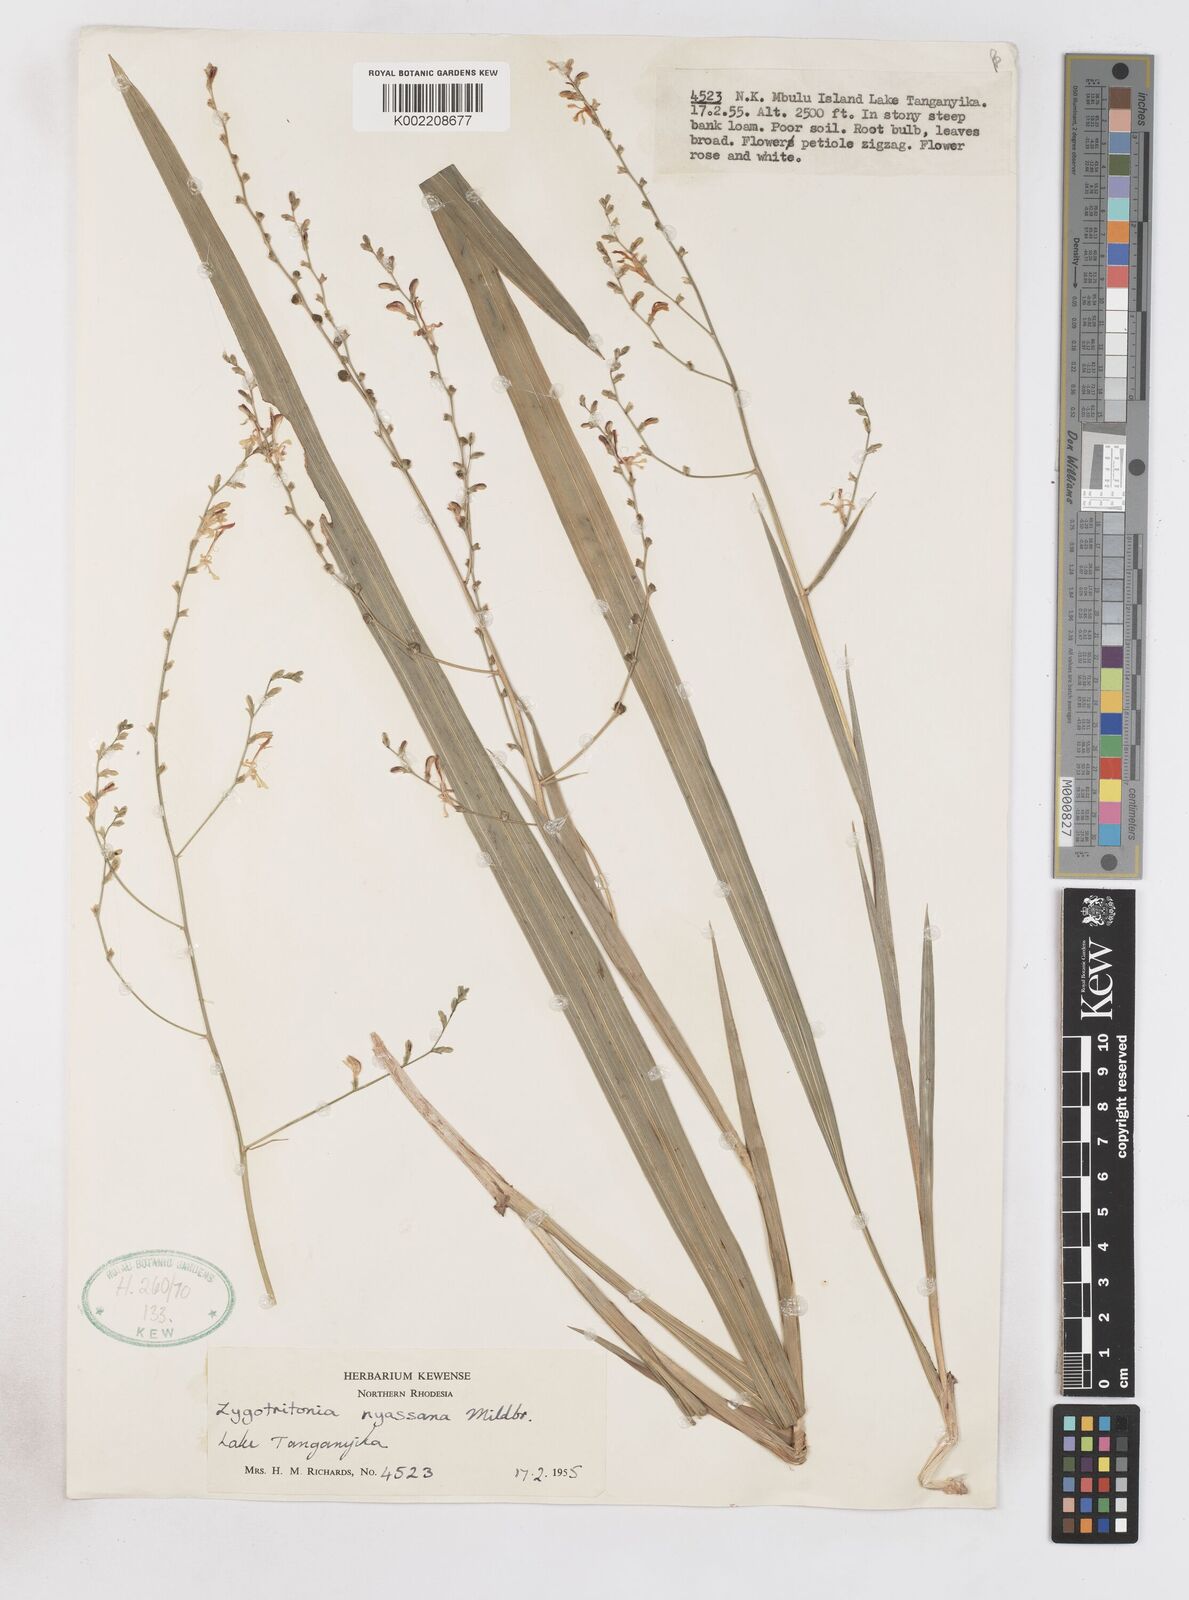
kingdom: Plantae
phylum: Tracheophyta
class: Liliopsida
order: Asparagales
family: Iridaceae
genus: Zygotritonia
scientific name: Zygotritonia nyassana
